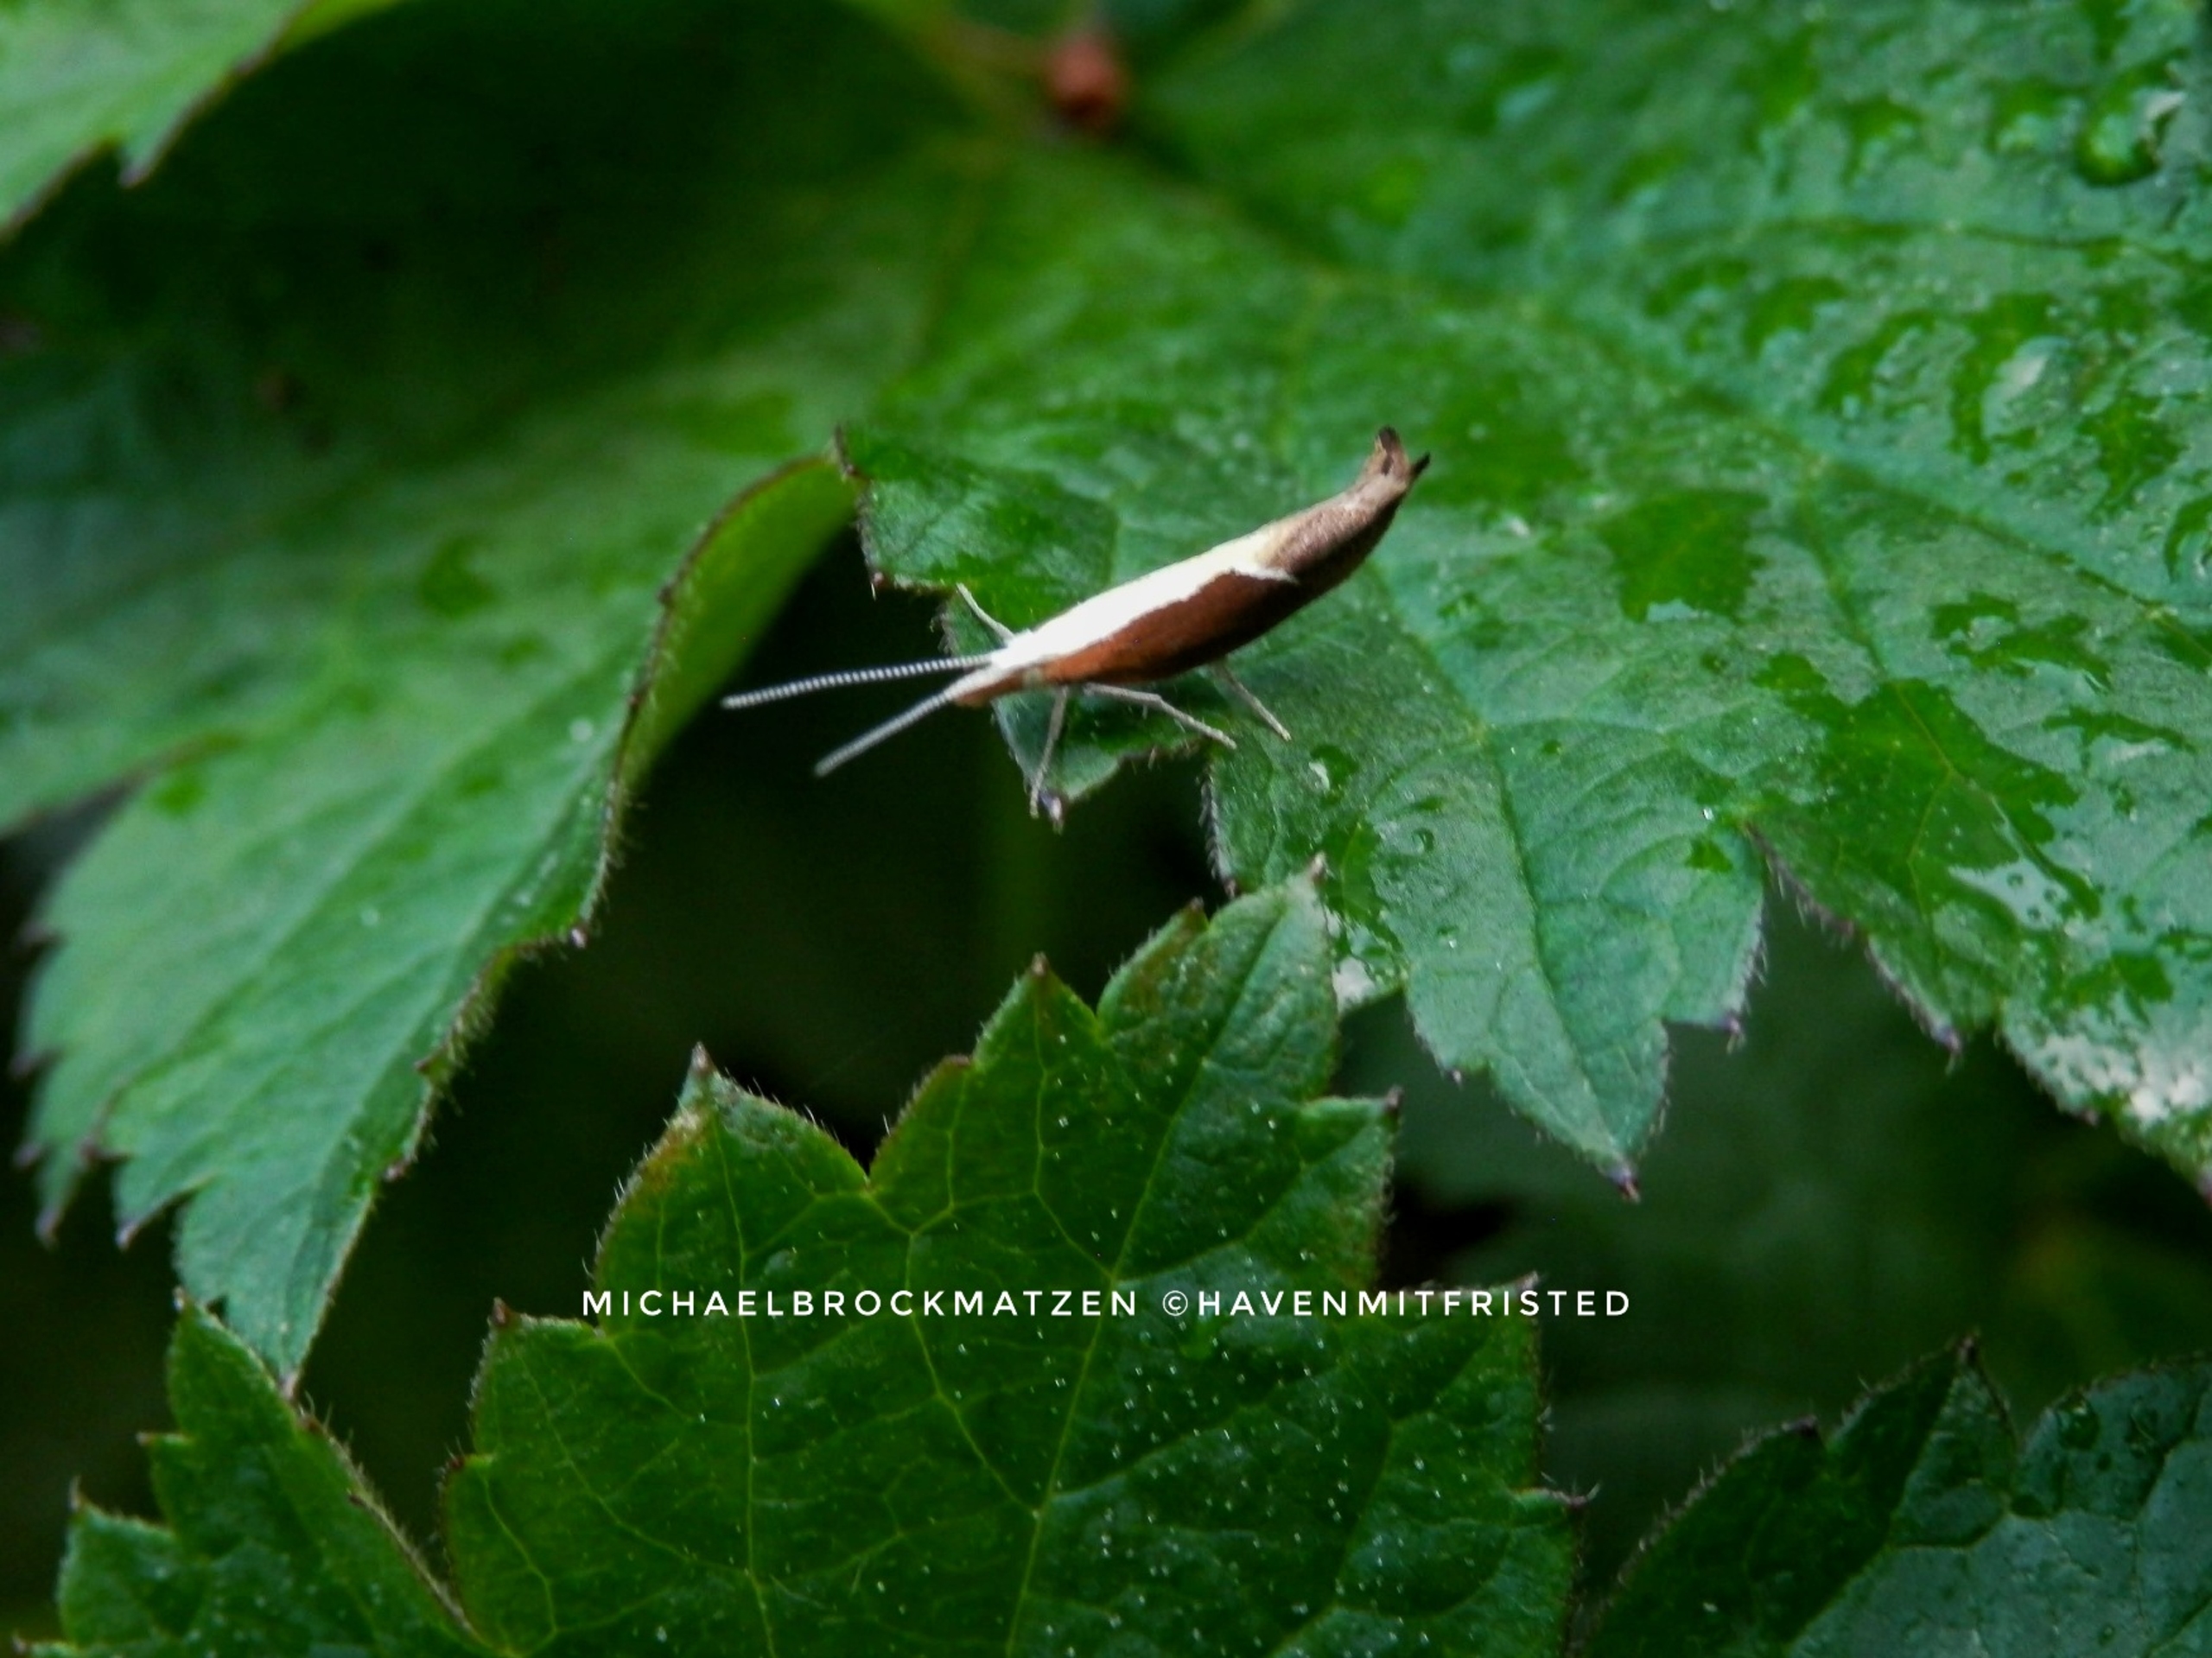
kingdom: Animalia
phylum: Arthropoda
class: Insecta
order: Lepidoptera
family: Ypsolophidae
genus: Ypsolopha
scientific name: Ypsolopha dentella
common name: Snudegedebladmøl
